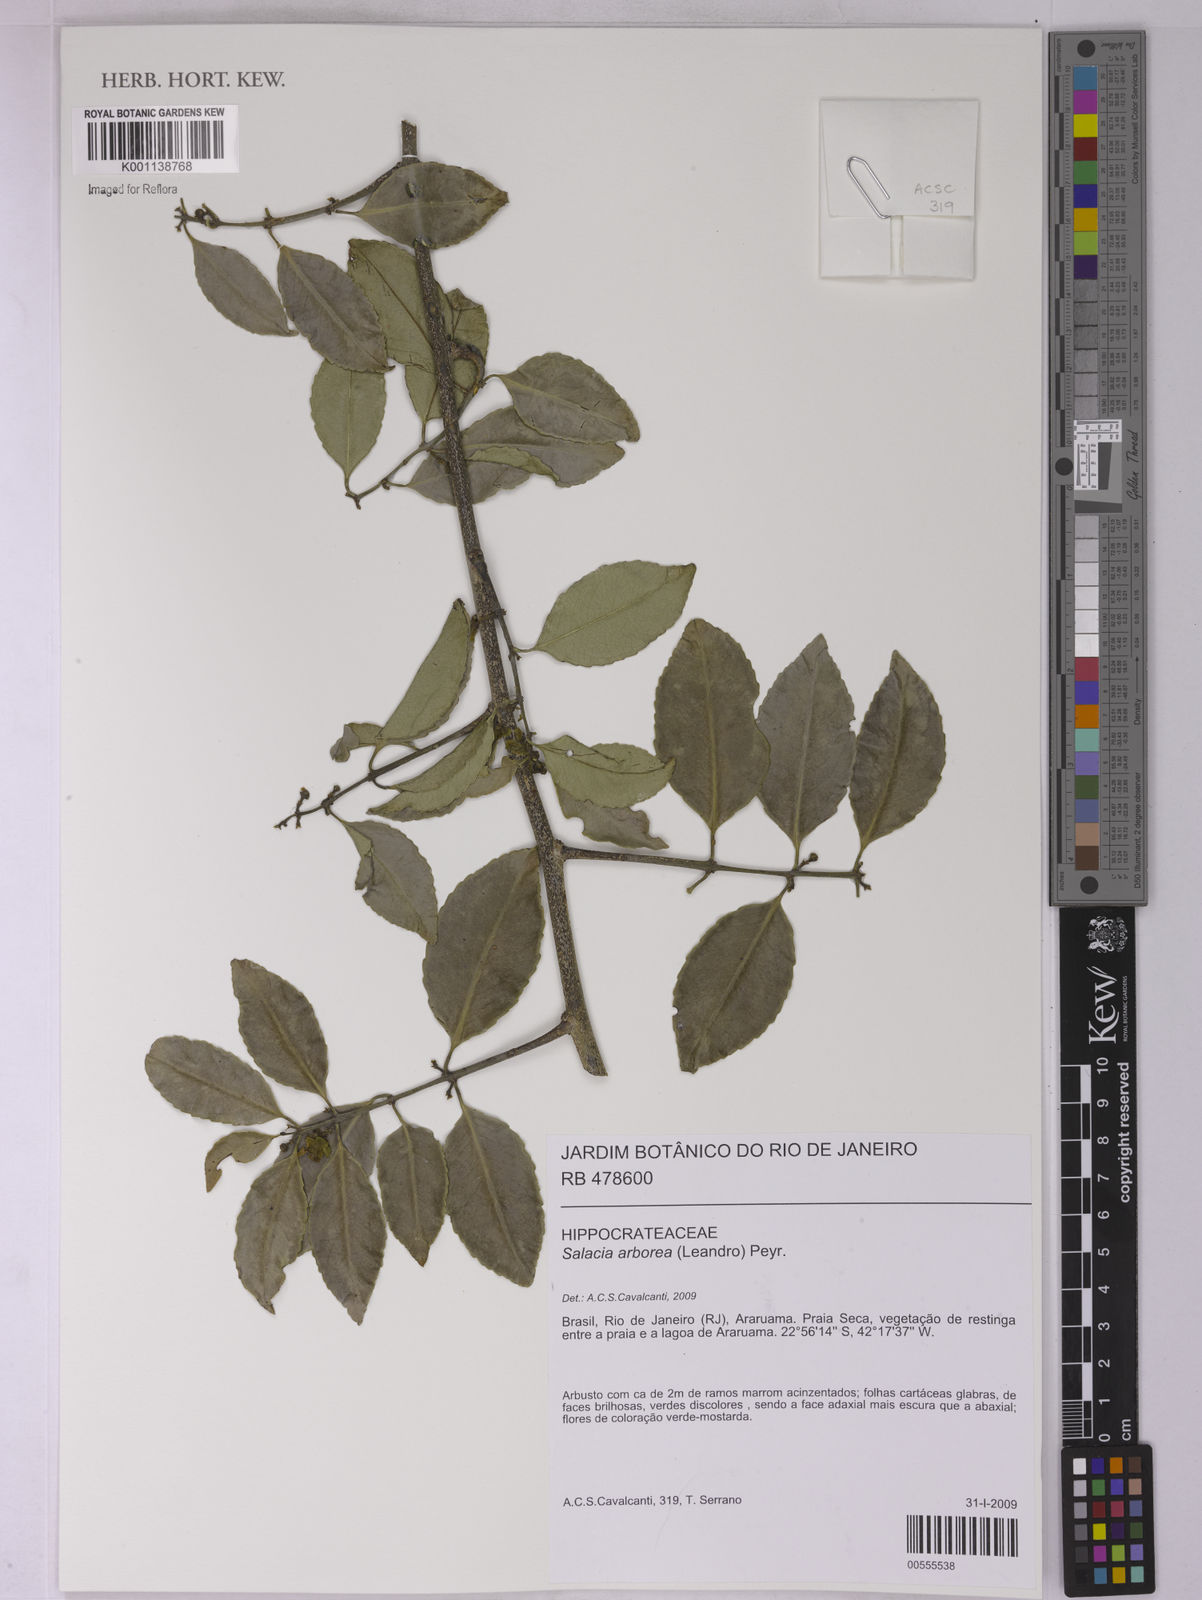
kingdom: Plantae
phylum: Tracheophyta
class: Magnoliopsida
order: Celastrales
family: Celastraceae
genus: Salacia
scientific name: Salacia arborea
